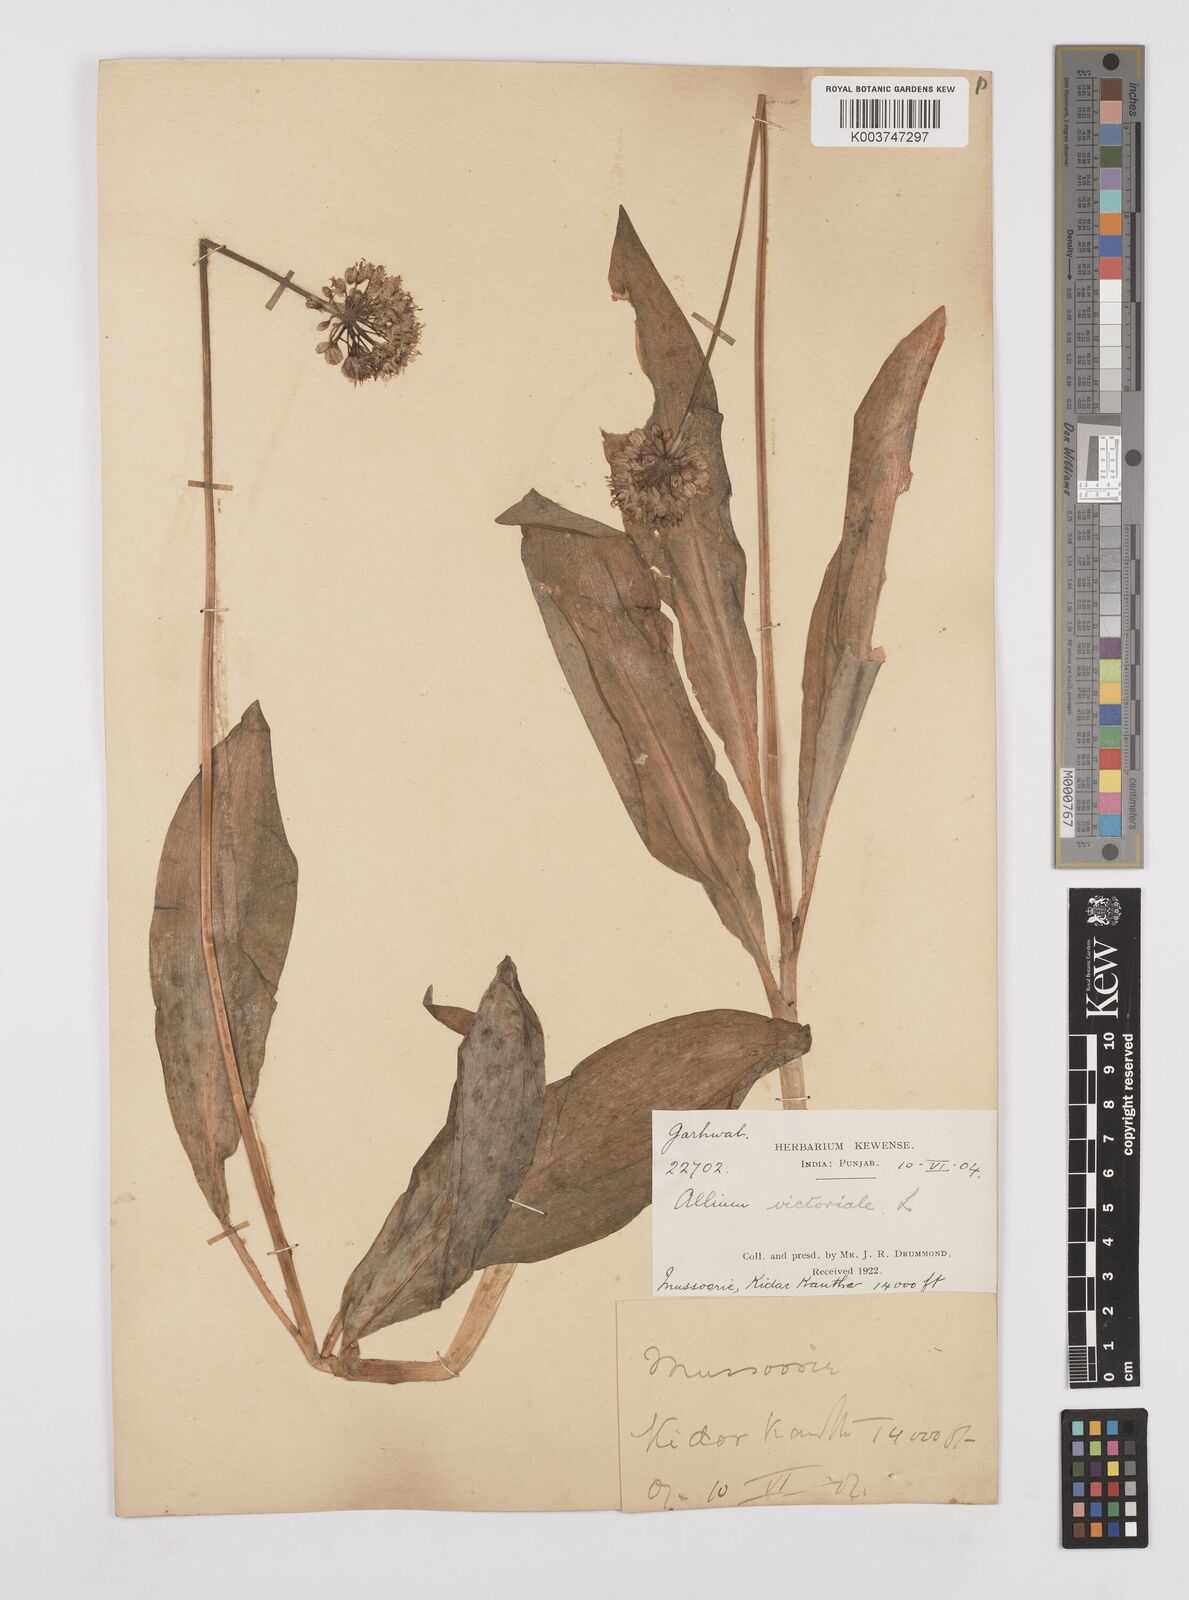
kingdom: Plantae
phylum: Tracheophyta
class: Liliopsida
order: Asparagales
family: Amaryllidaceae
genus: Allium
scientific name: Allium victorialis
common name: Alpine leek
